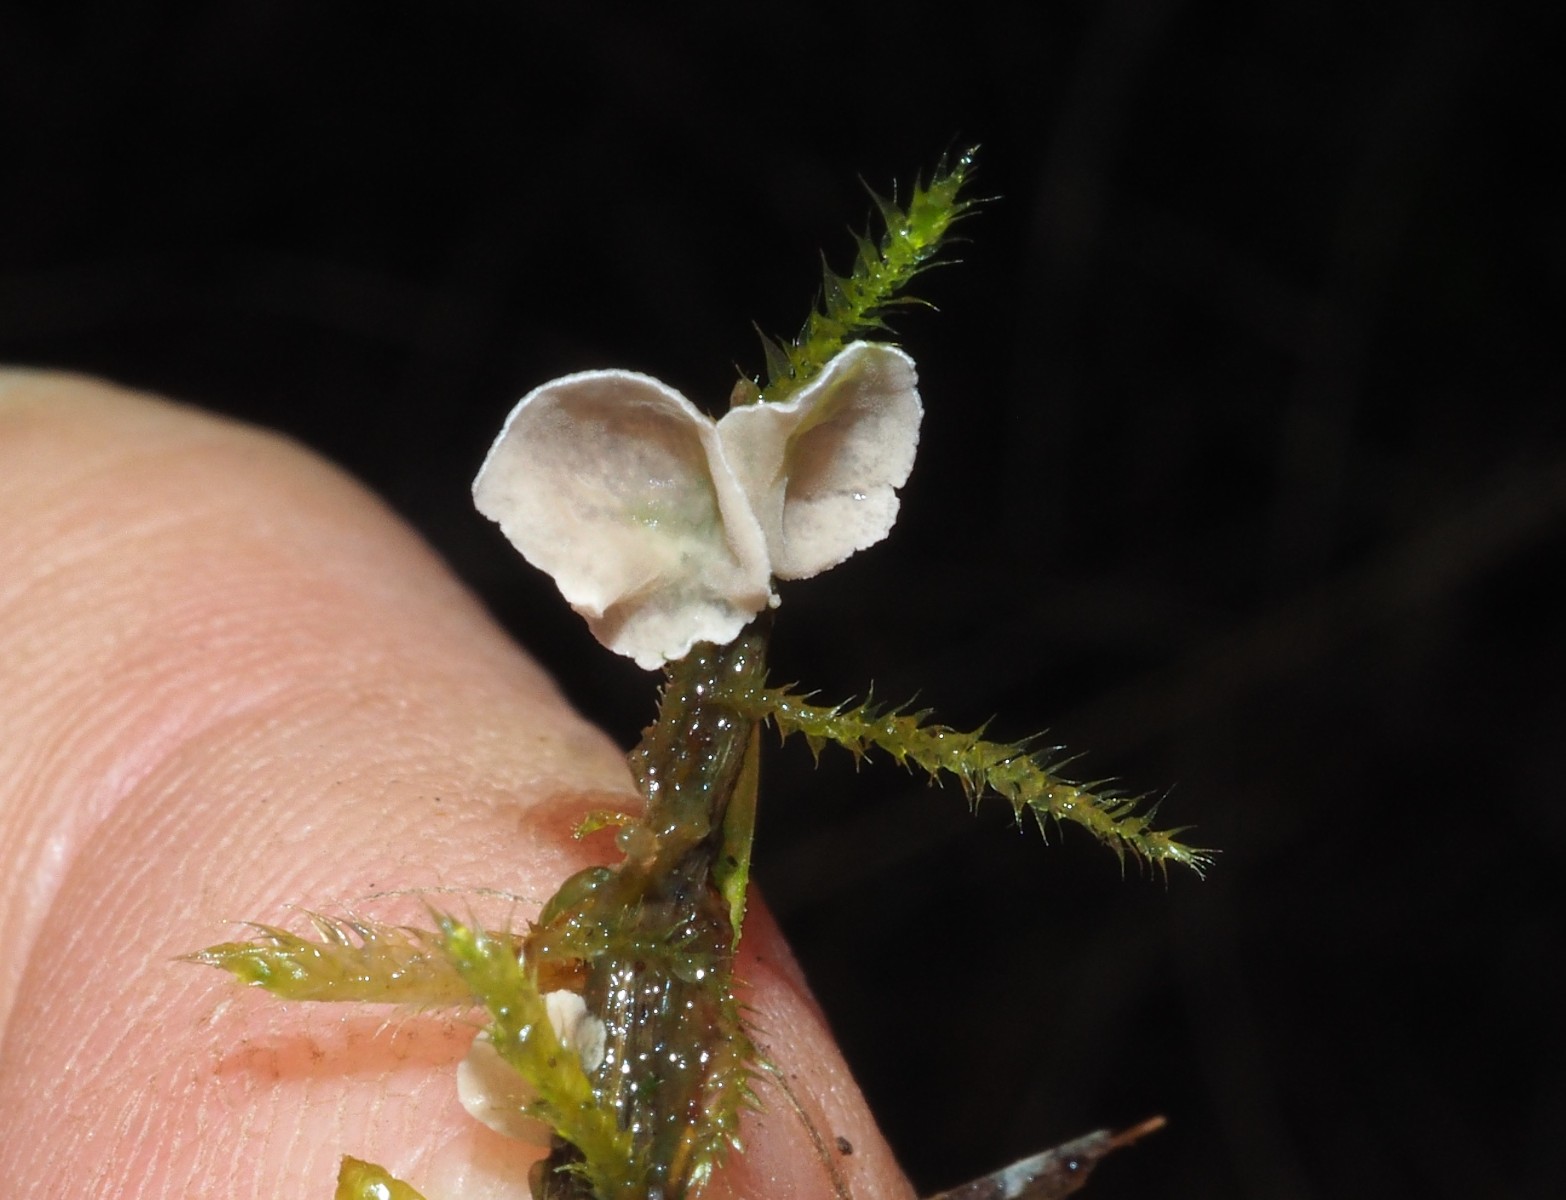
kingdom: Fungi
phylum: Basidiomycota
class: Agaricomycetes
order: Agaricales
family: Hygrophoraceae
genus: Arrhenia
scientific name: Arrhenia retiruga
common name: lille fontænehat
